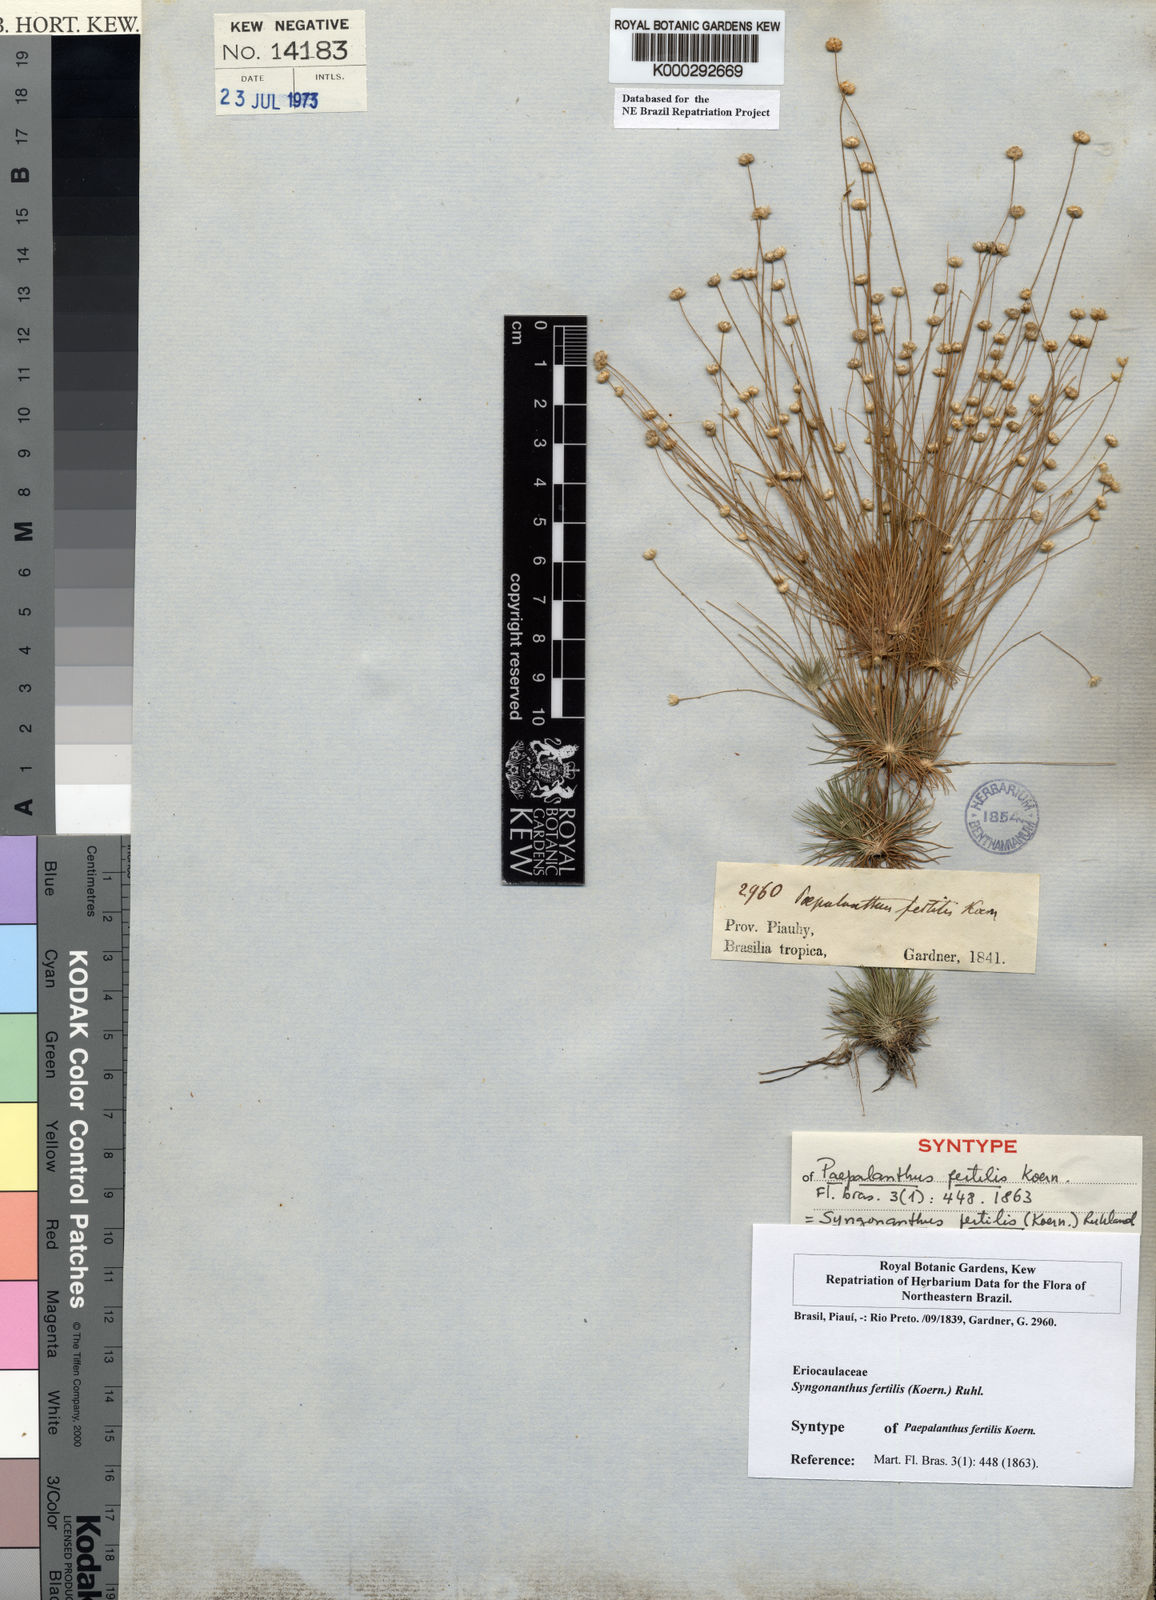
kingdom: Plantae
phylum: Tracheophyta
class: Liliopsida
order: Poales
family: Eriocaulaceae
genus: Syngonanthus
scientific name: Syngonanthus humboldtii
